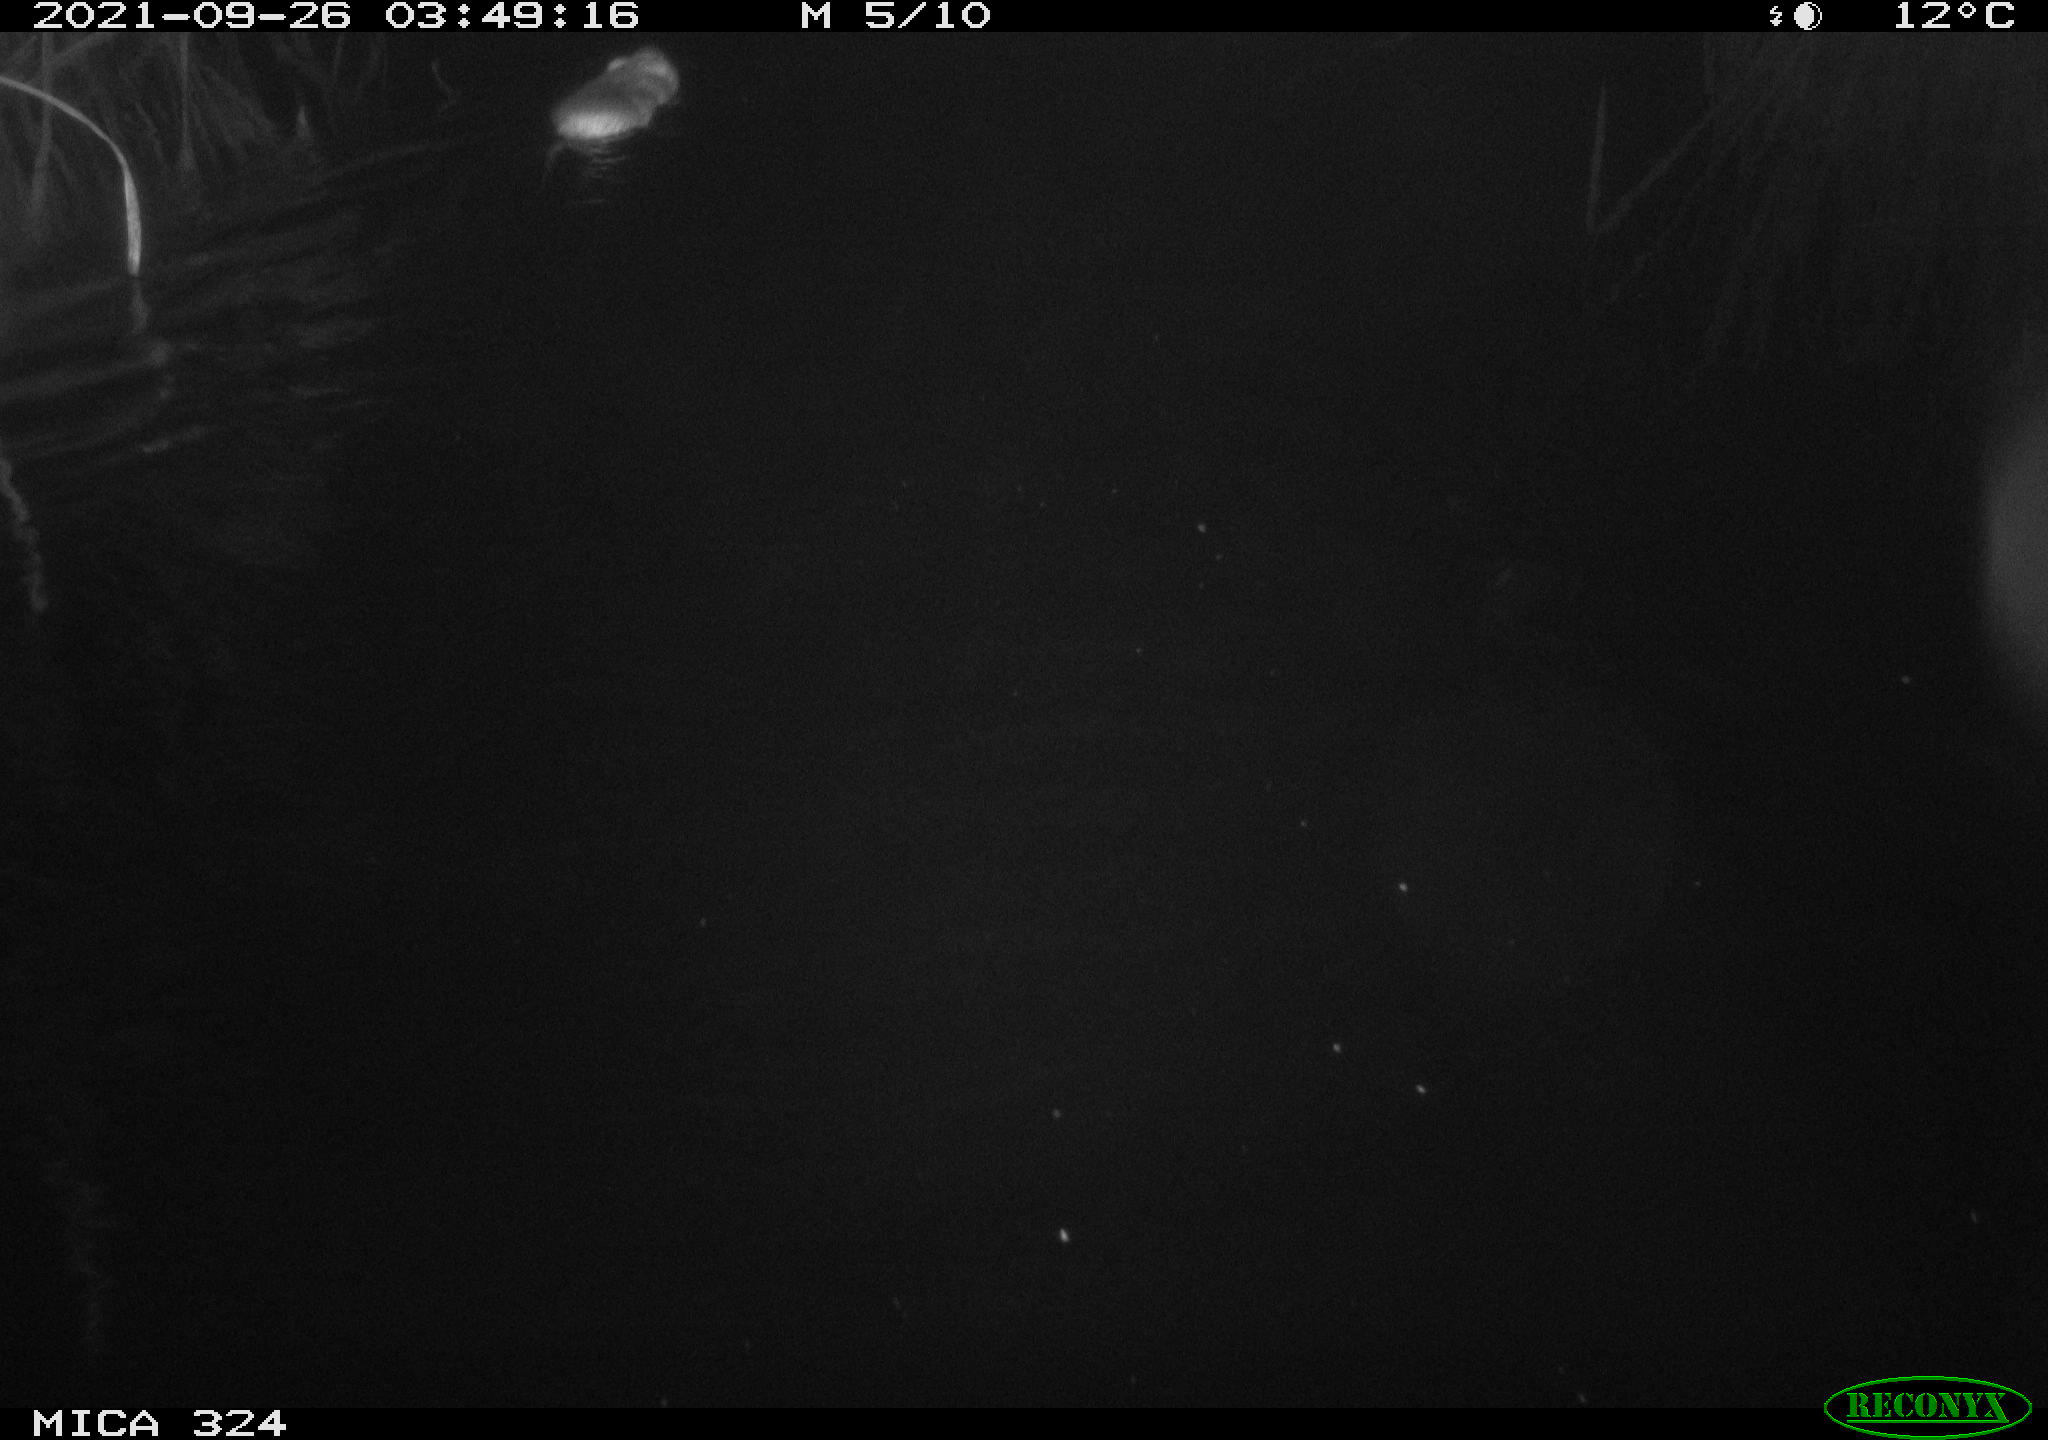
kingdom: Animalia
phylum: Chordata
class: Mammalia
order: Rodentia
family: Cricetidae
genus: Ondatra
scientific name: Ondatra zibethicus
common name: Muskrat
